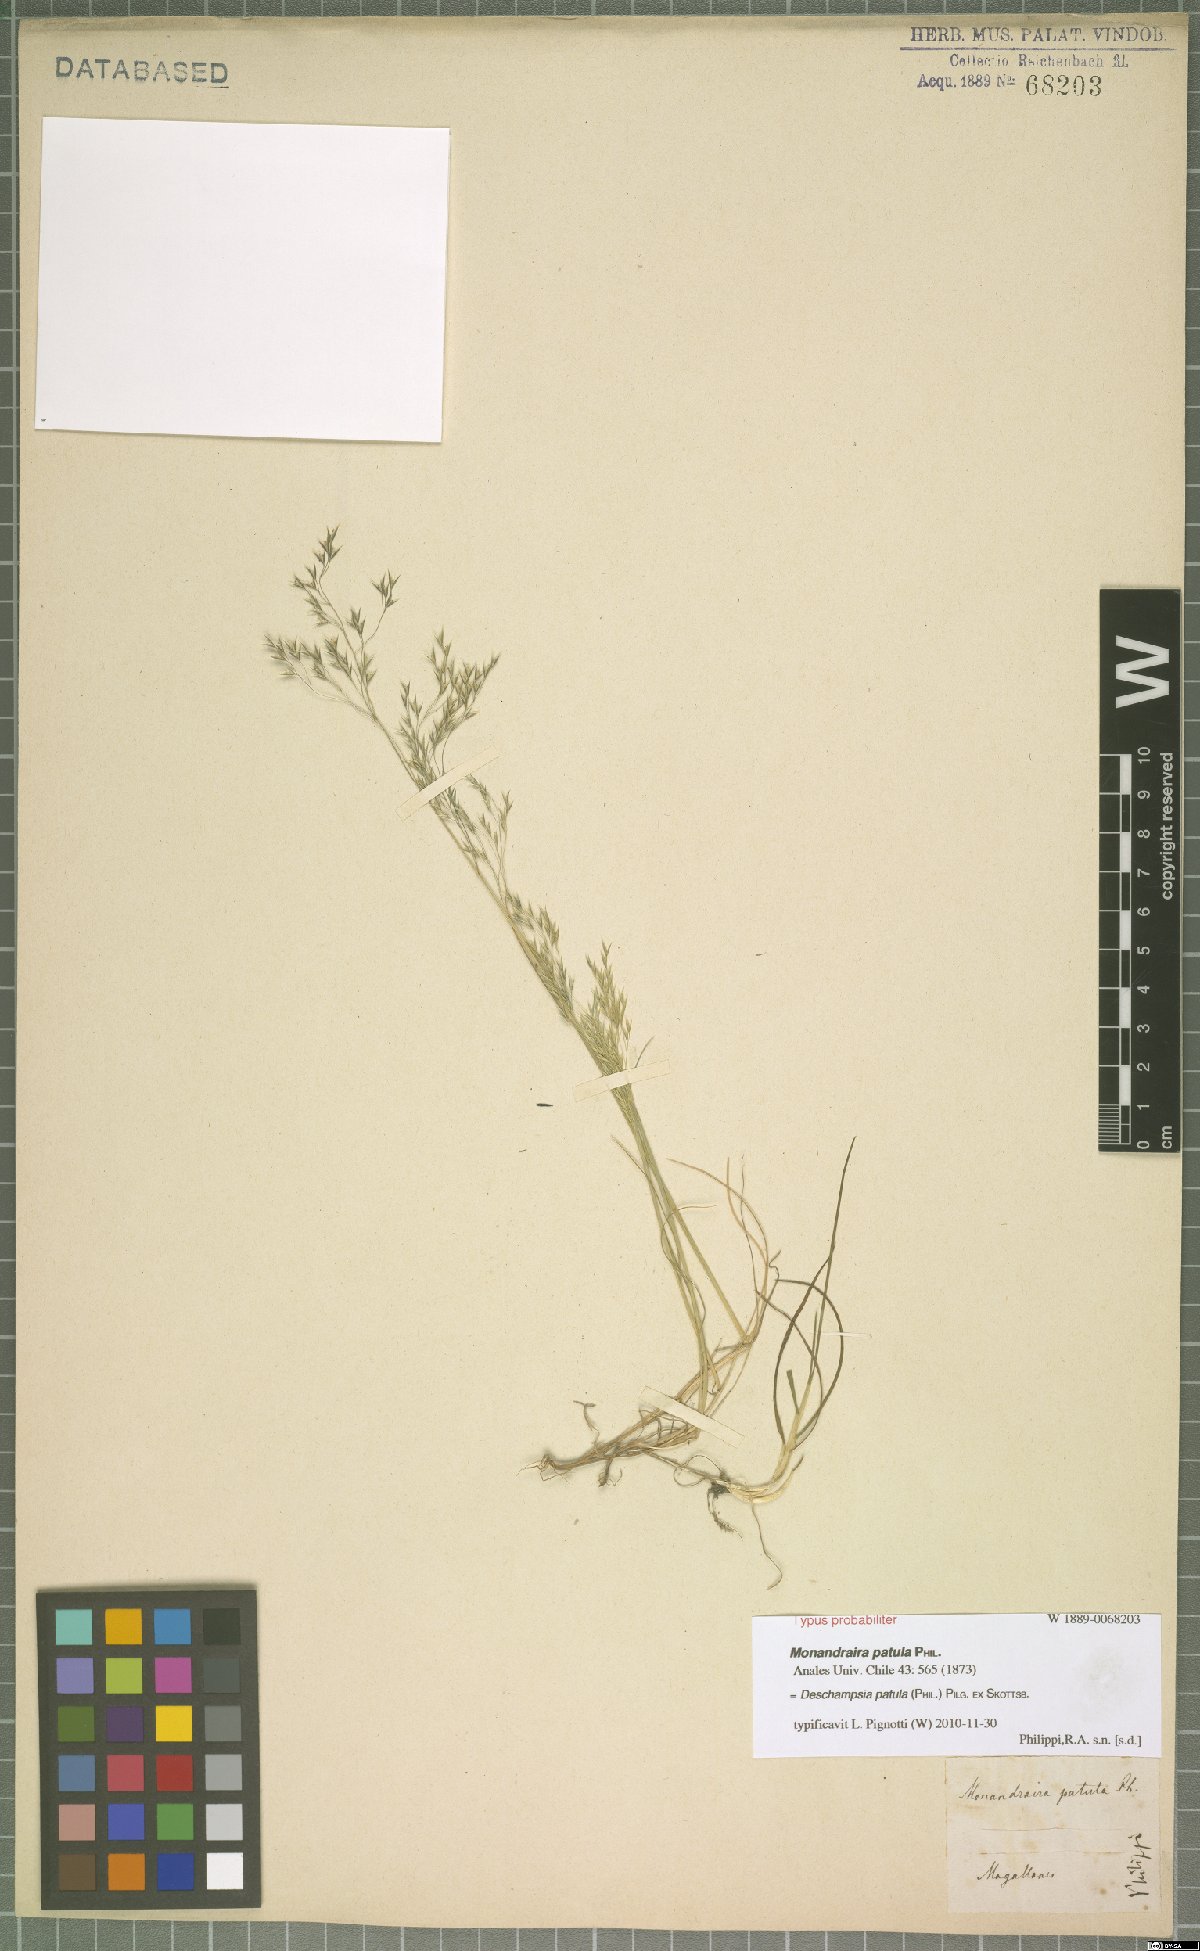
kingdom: Plantae
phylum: Tracheophyta
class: Liliopsida
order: Poales
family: Poaceae
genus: Deschampsia
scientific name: Deschampsia patula
